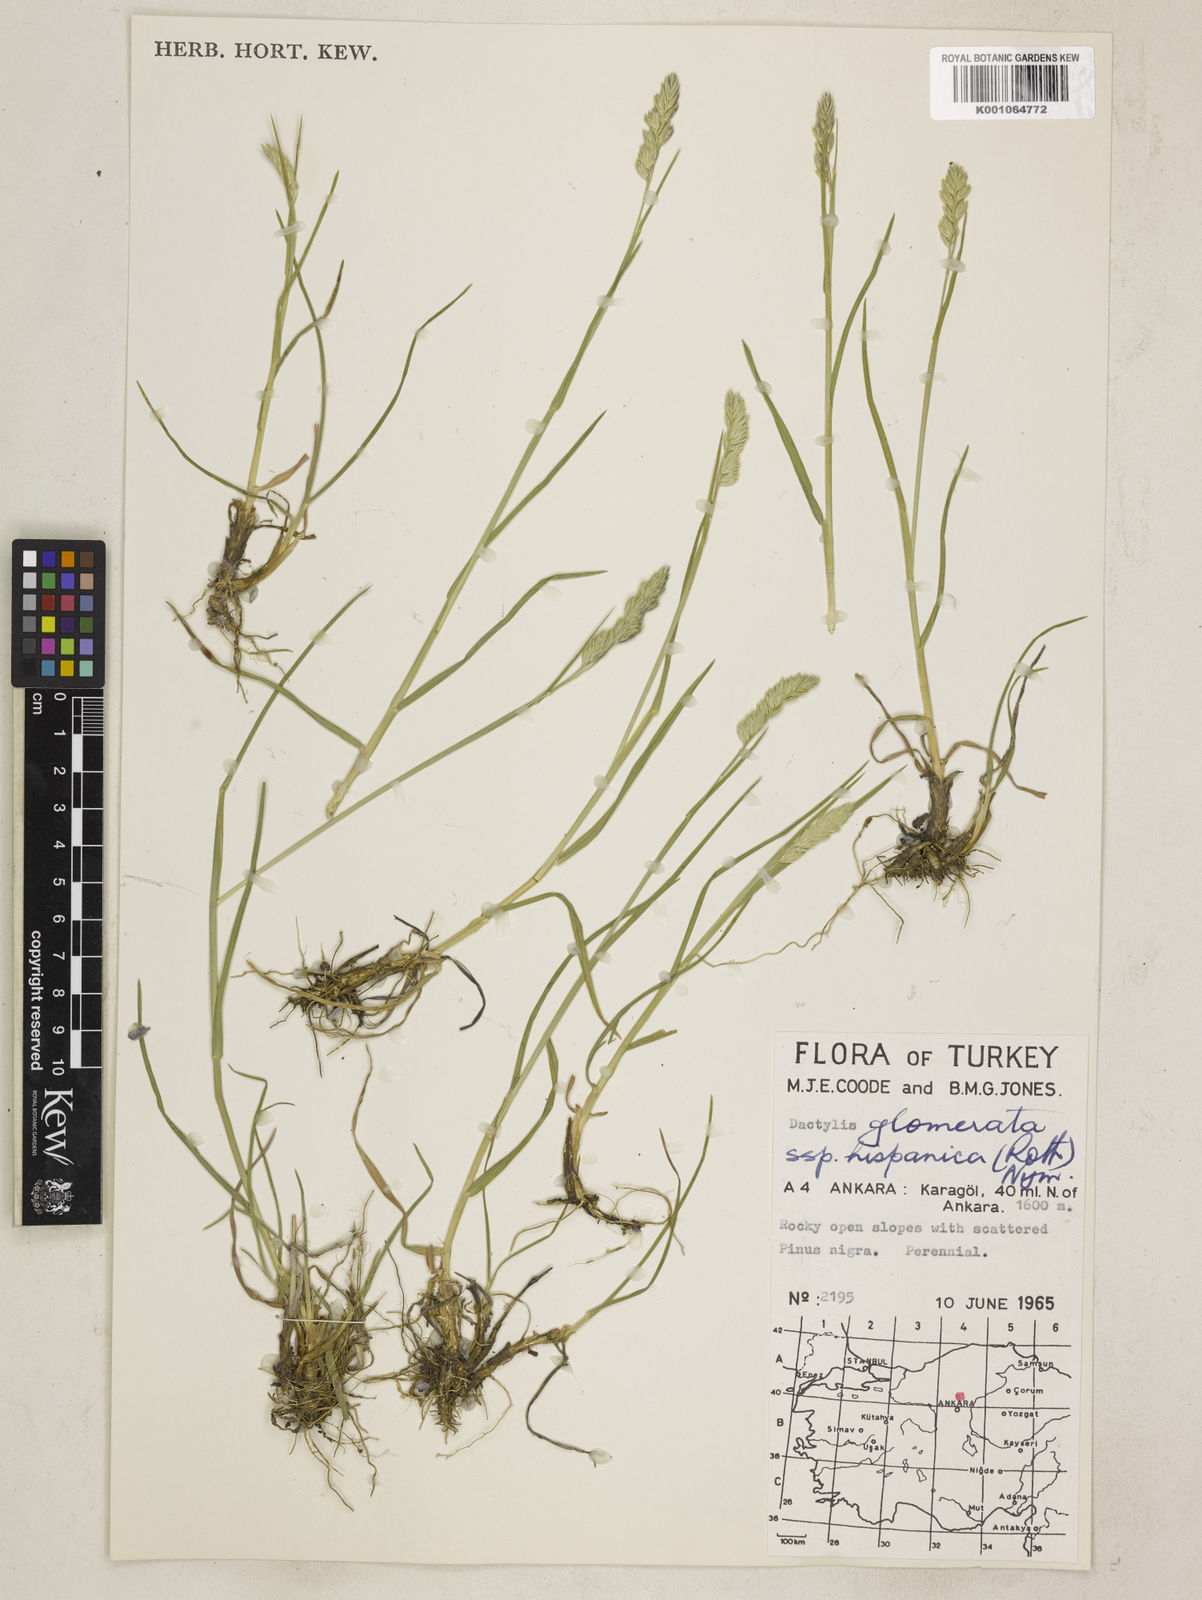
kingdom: Plantae
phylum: Tracheophyta
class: Liliopsida
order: Poales
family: Poaceae
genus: Dactylis
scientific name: Dactylis glomerata
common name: Orchardgrass
